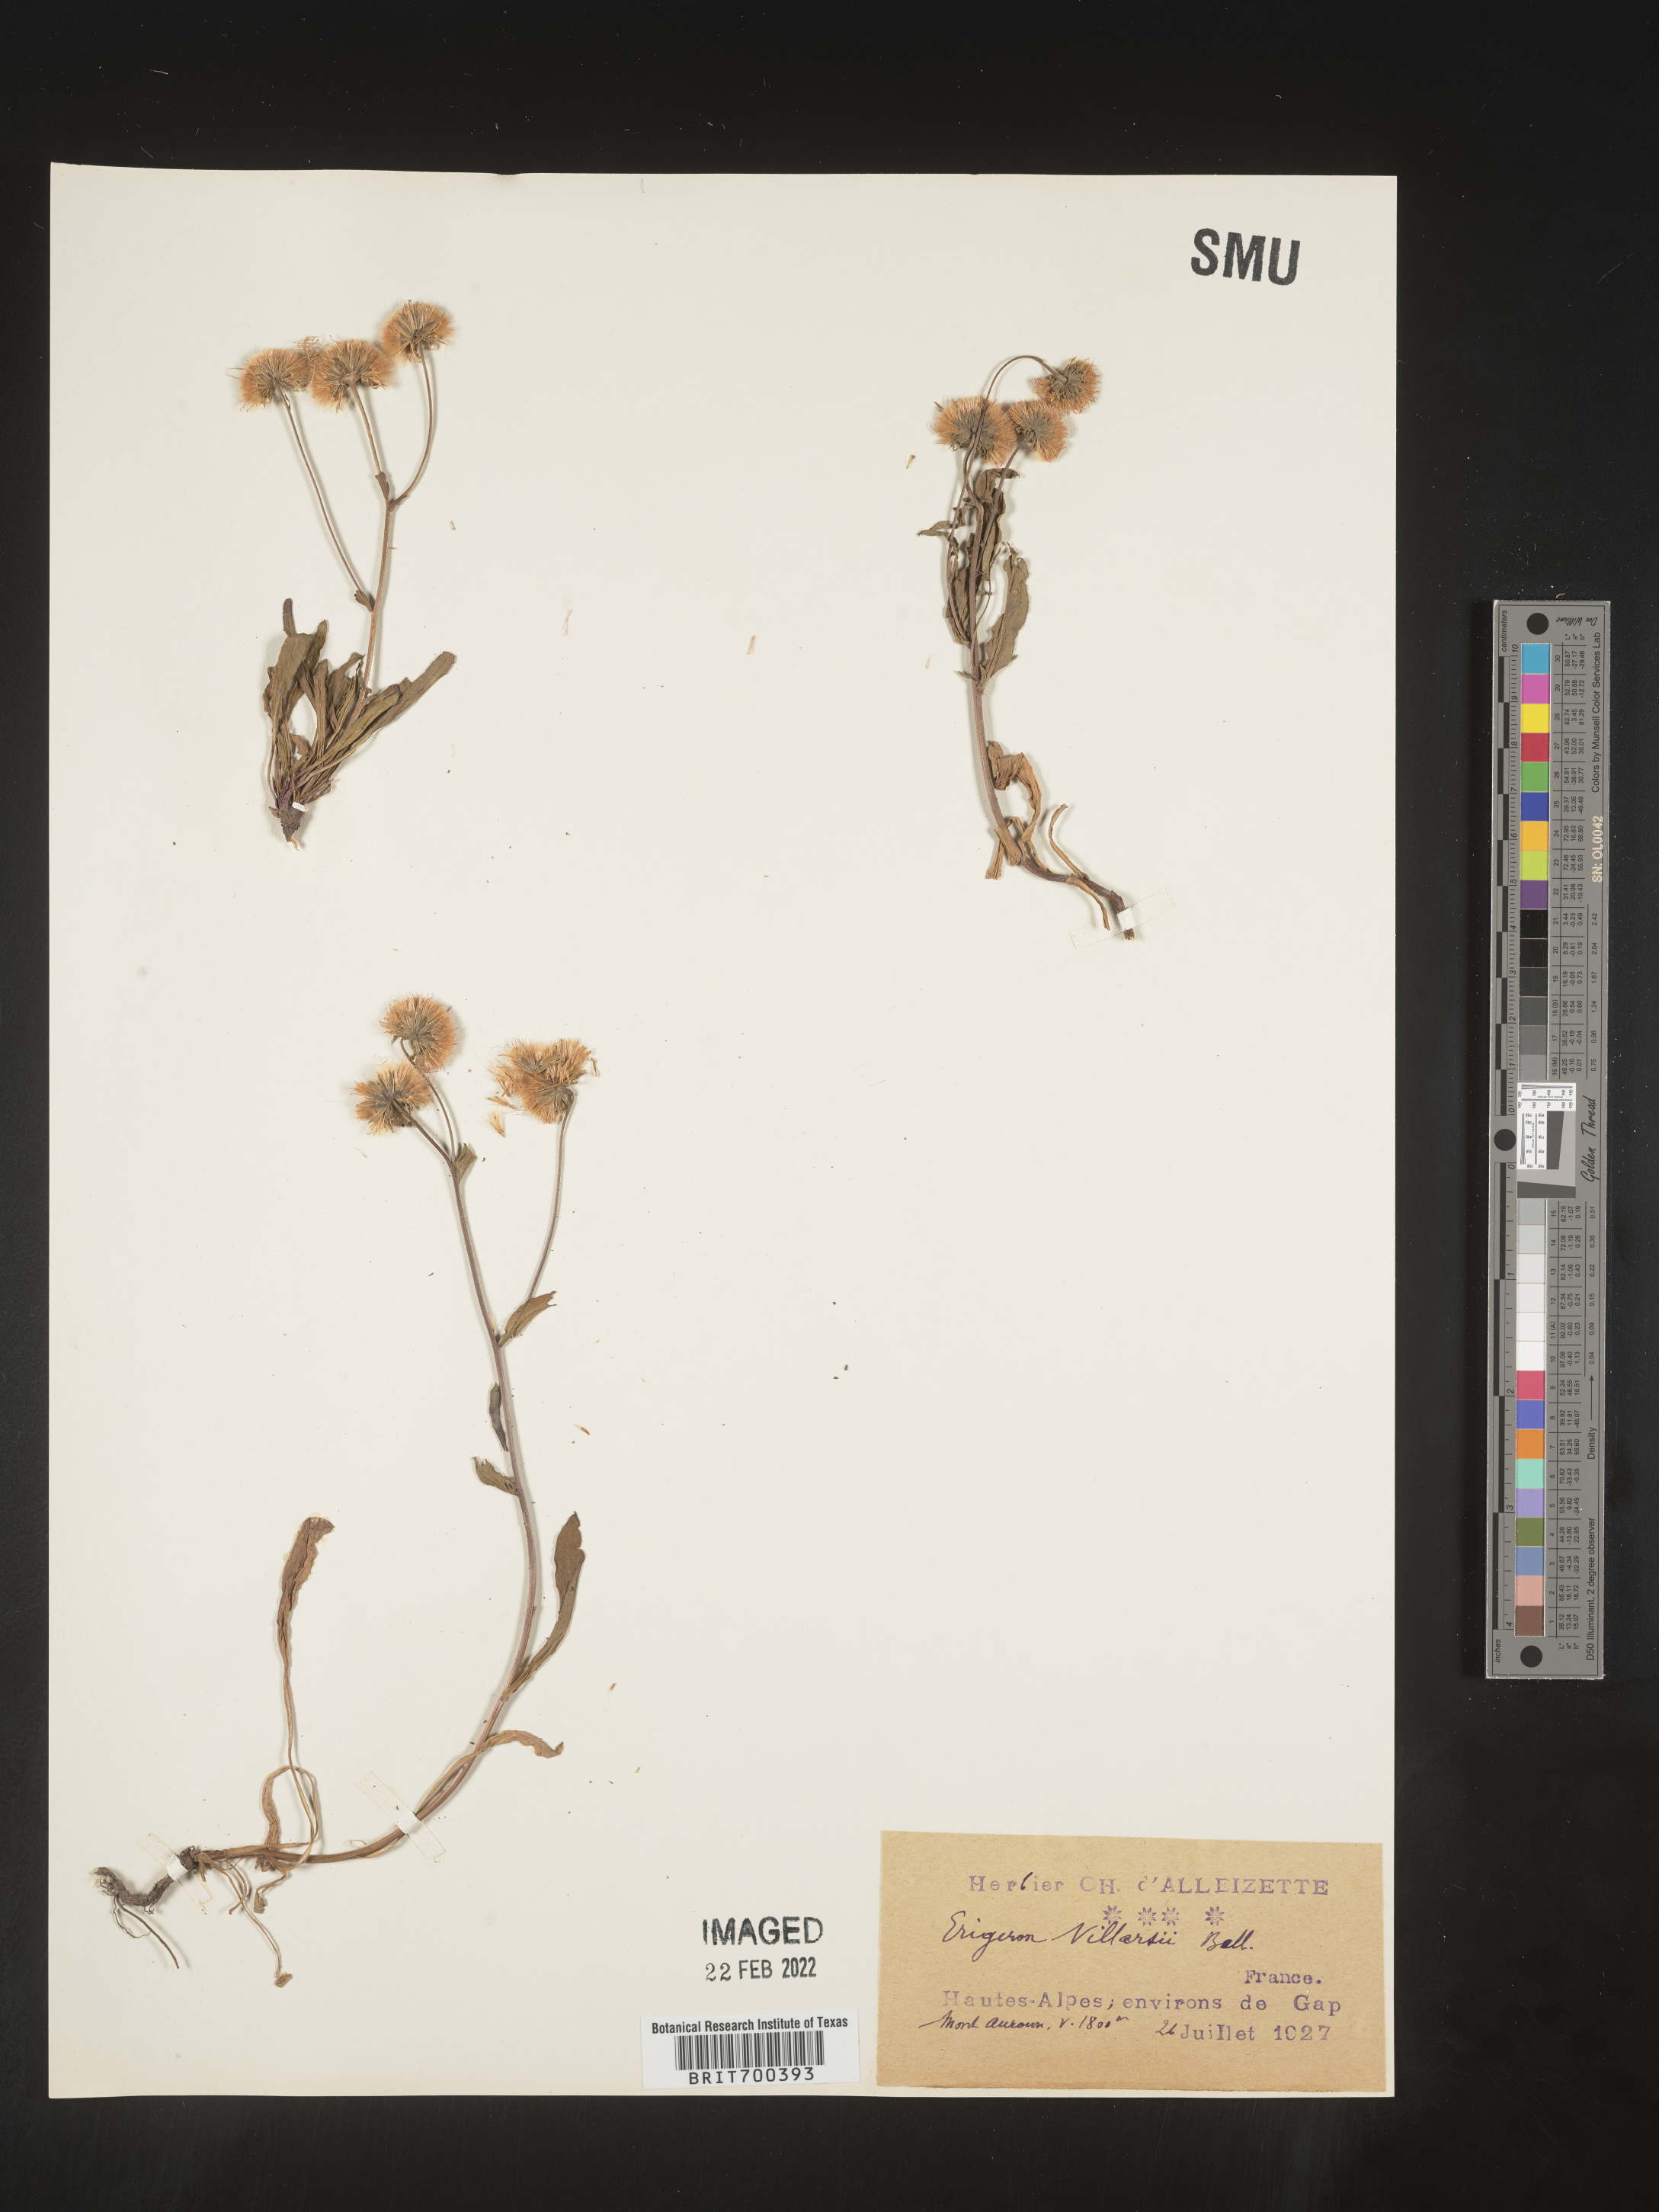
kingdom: Plantae
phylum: Tracheophyta
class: Magnoliopsida
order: Asterales
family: Asteraceae
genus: Erigeron
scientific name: Erigeron
